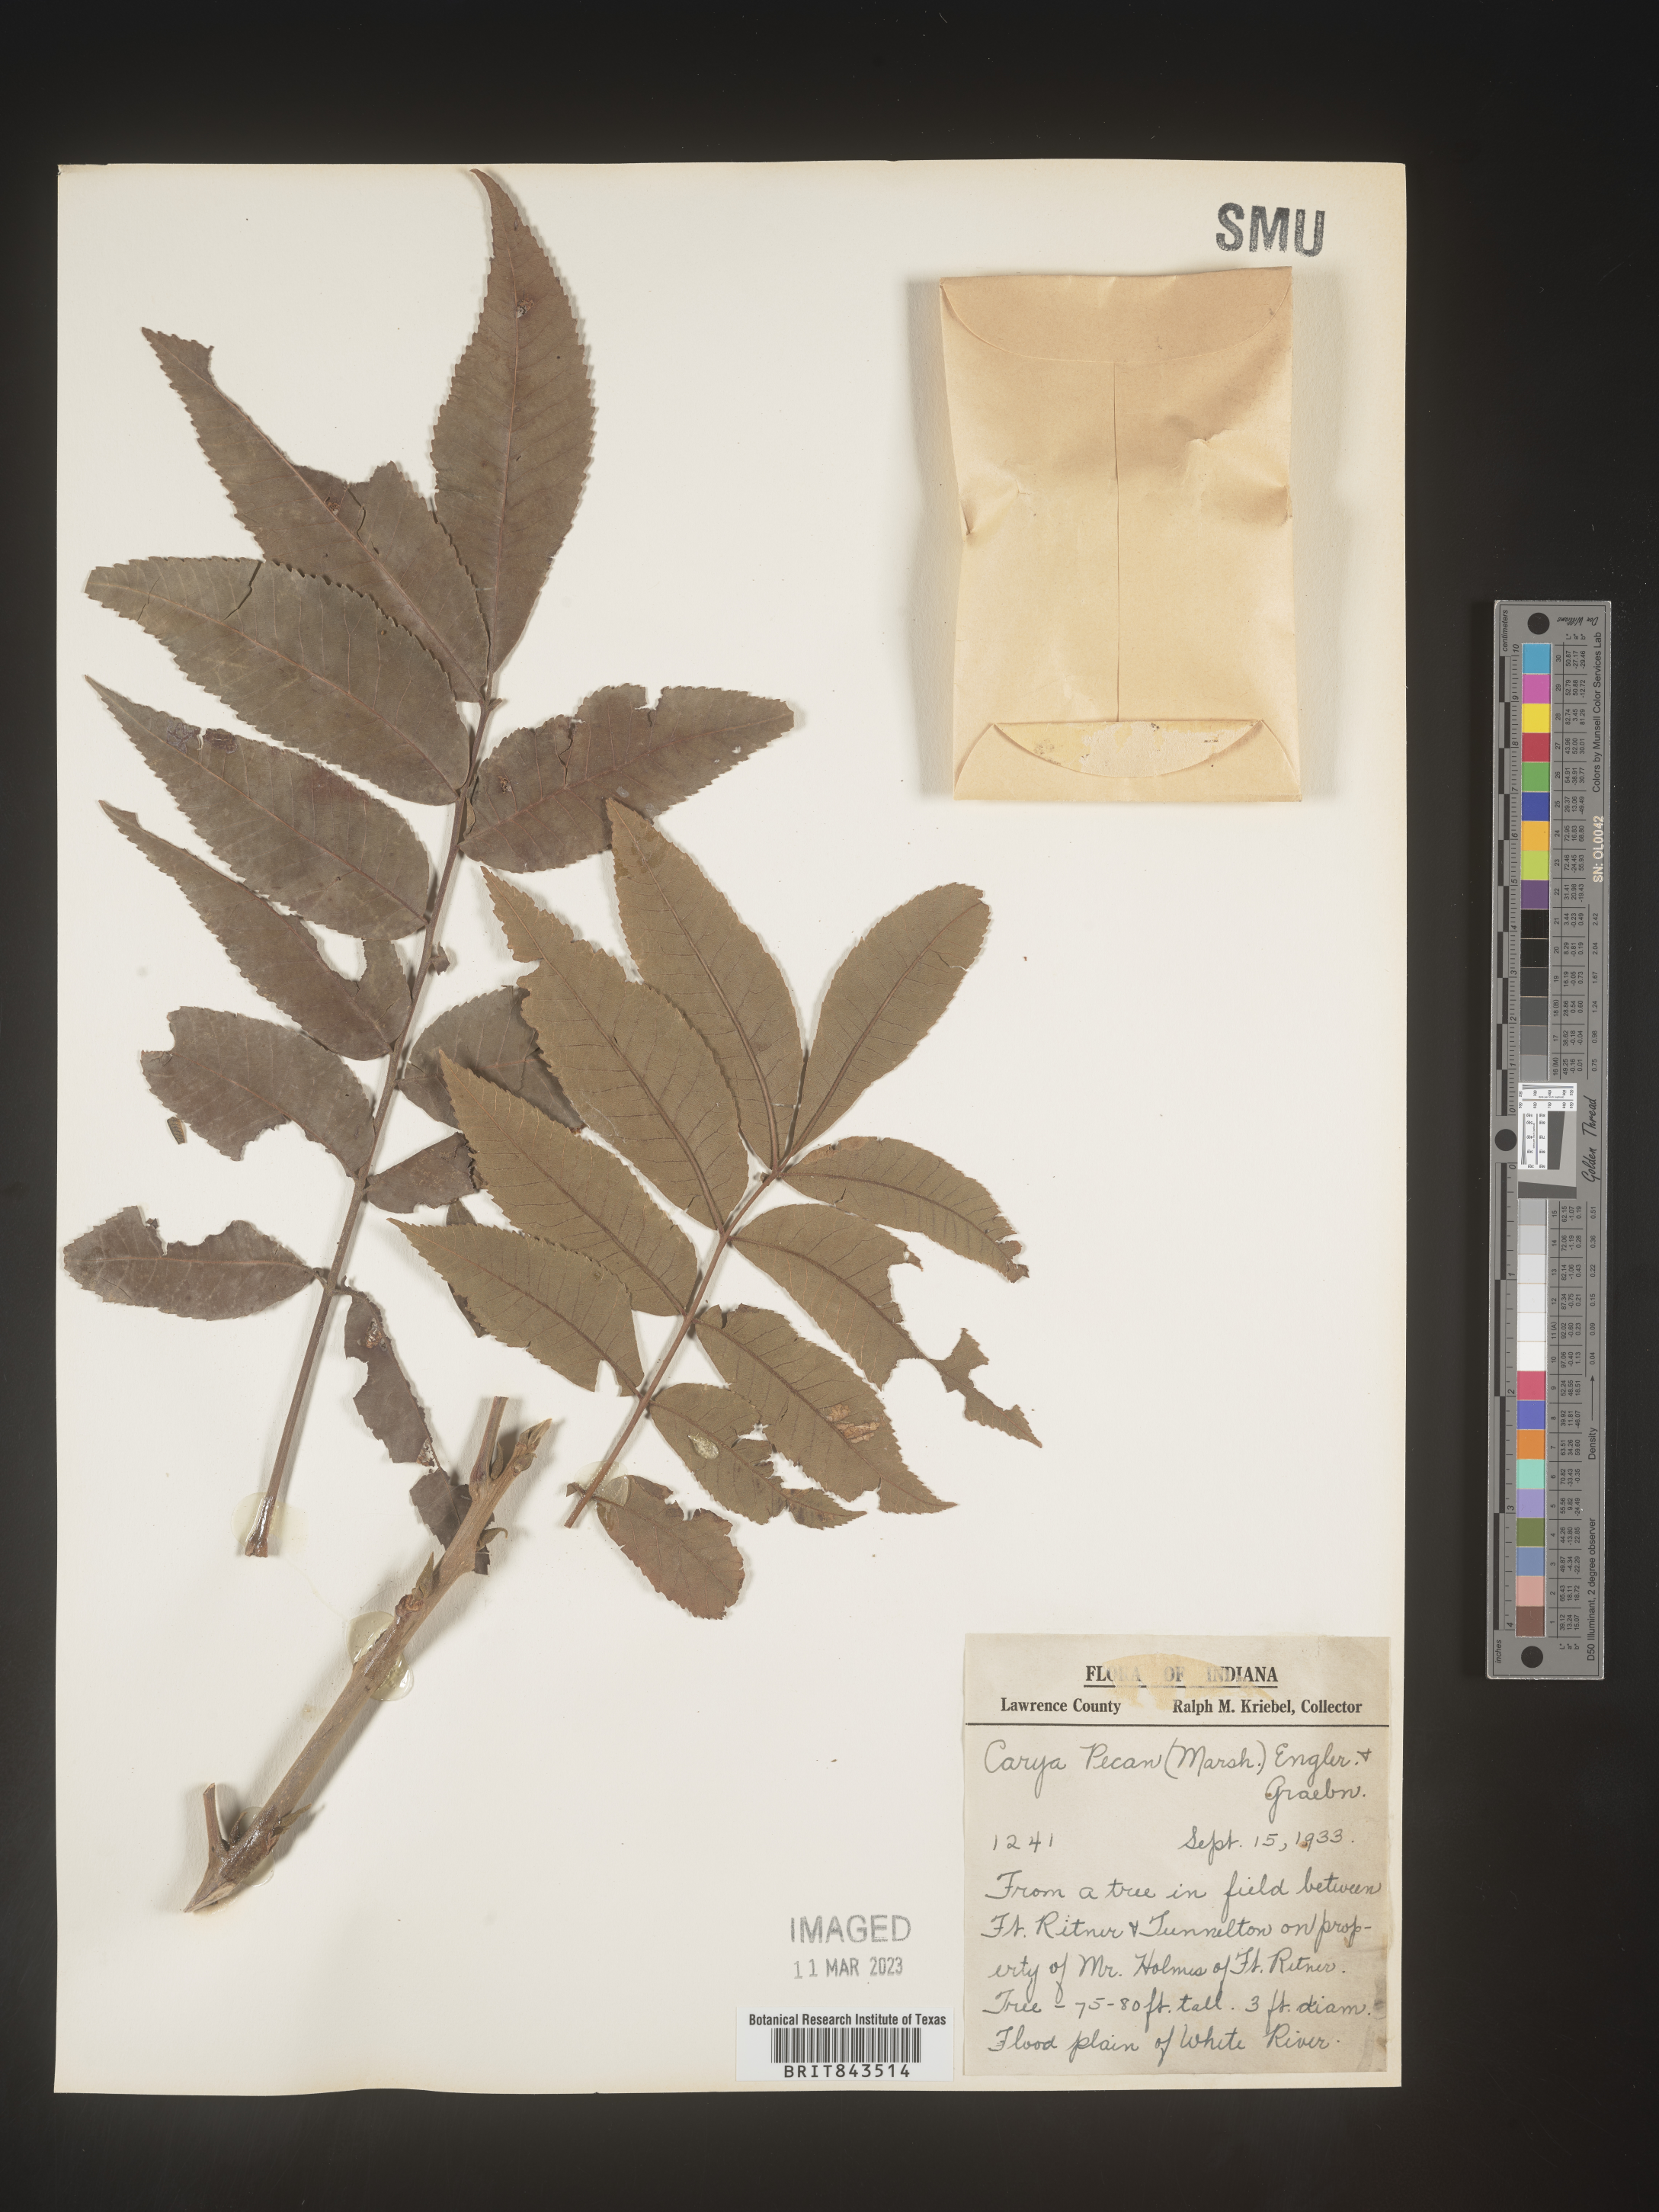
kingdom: Plantae
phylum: Tracheophyta
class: Magnoliopsida
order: Fagales
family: Juglandaceae
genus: Carya
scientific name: Carya illinoinensis
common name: Pecan
